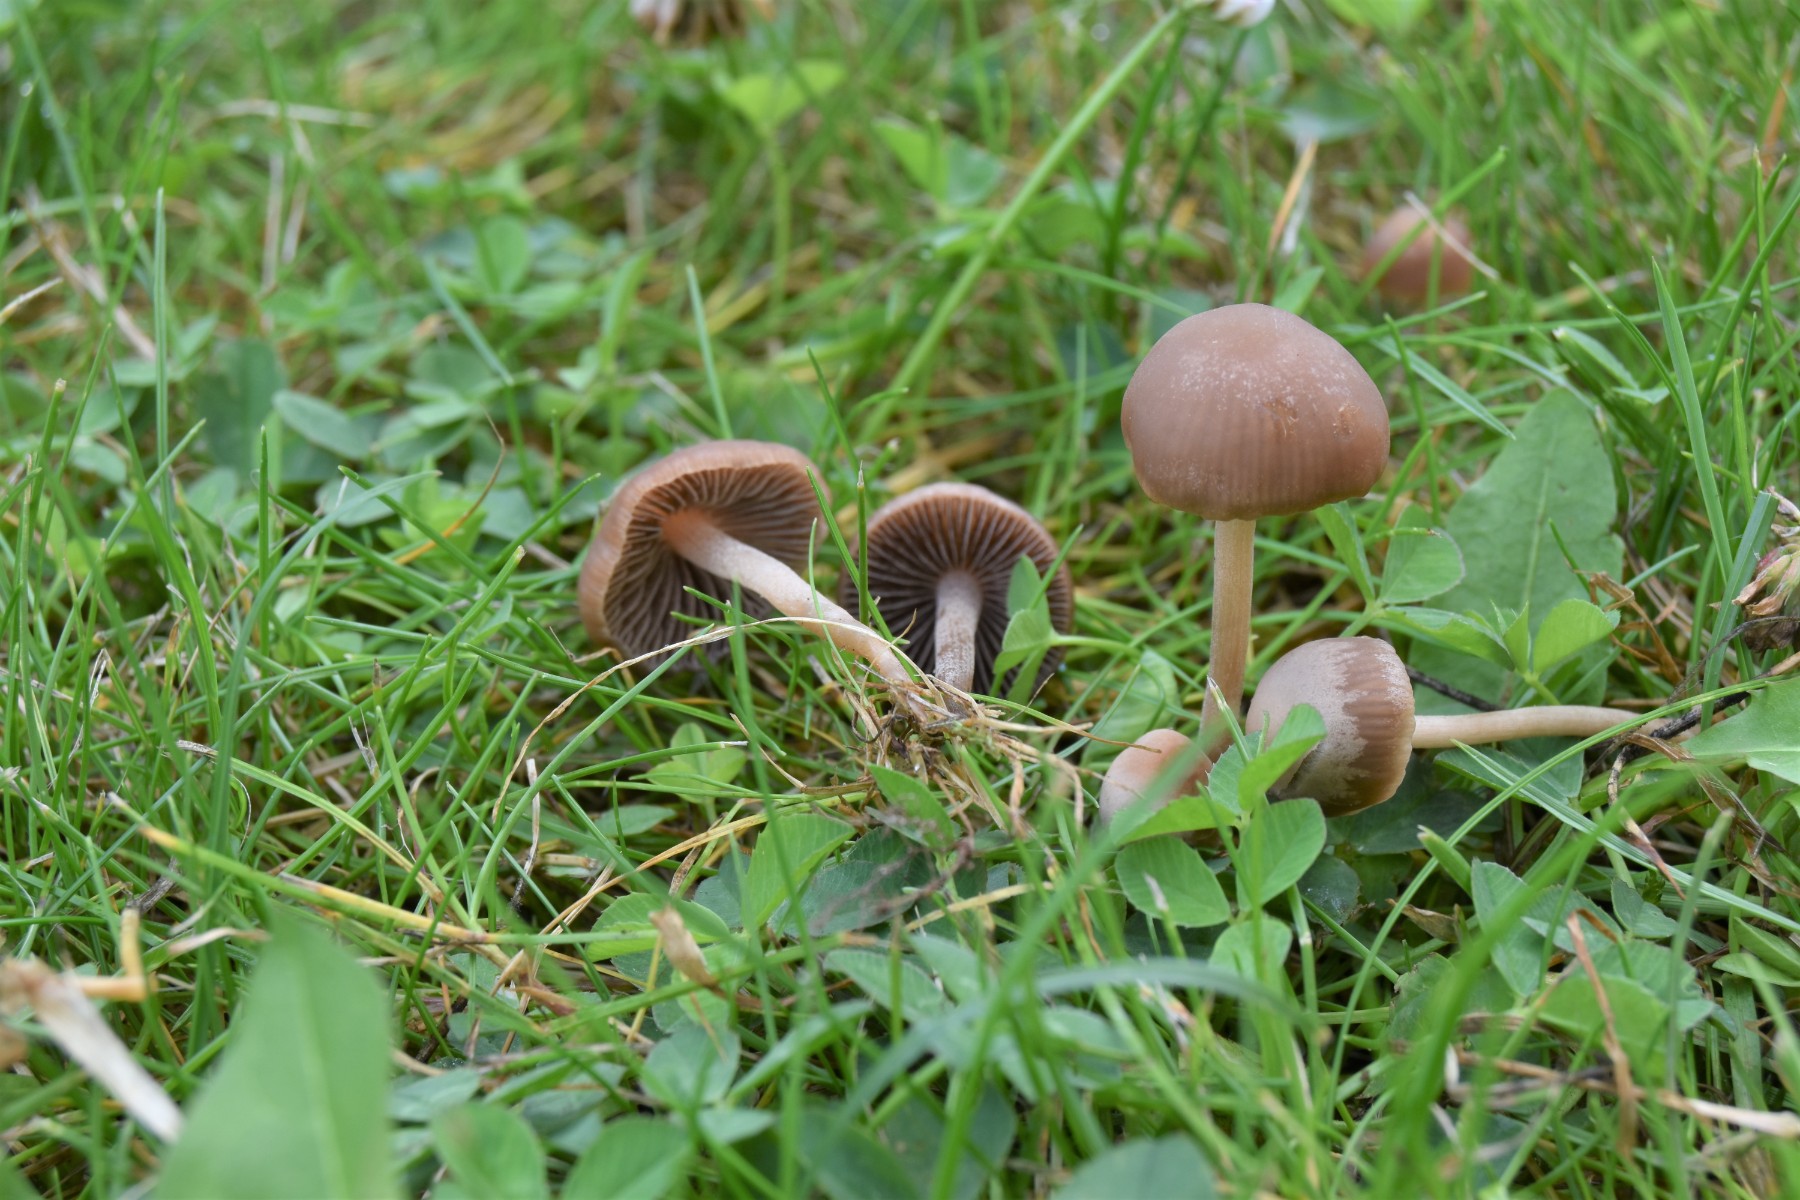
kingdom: Fungi
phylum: Basidiomycota
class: Agaricomycetes
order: Agaricales
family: Bolbitiaceae
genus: Panaeolina
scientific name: Panaeolina foenisecii
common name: høslætsvamp
